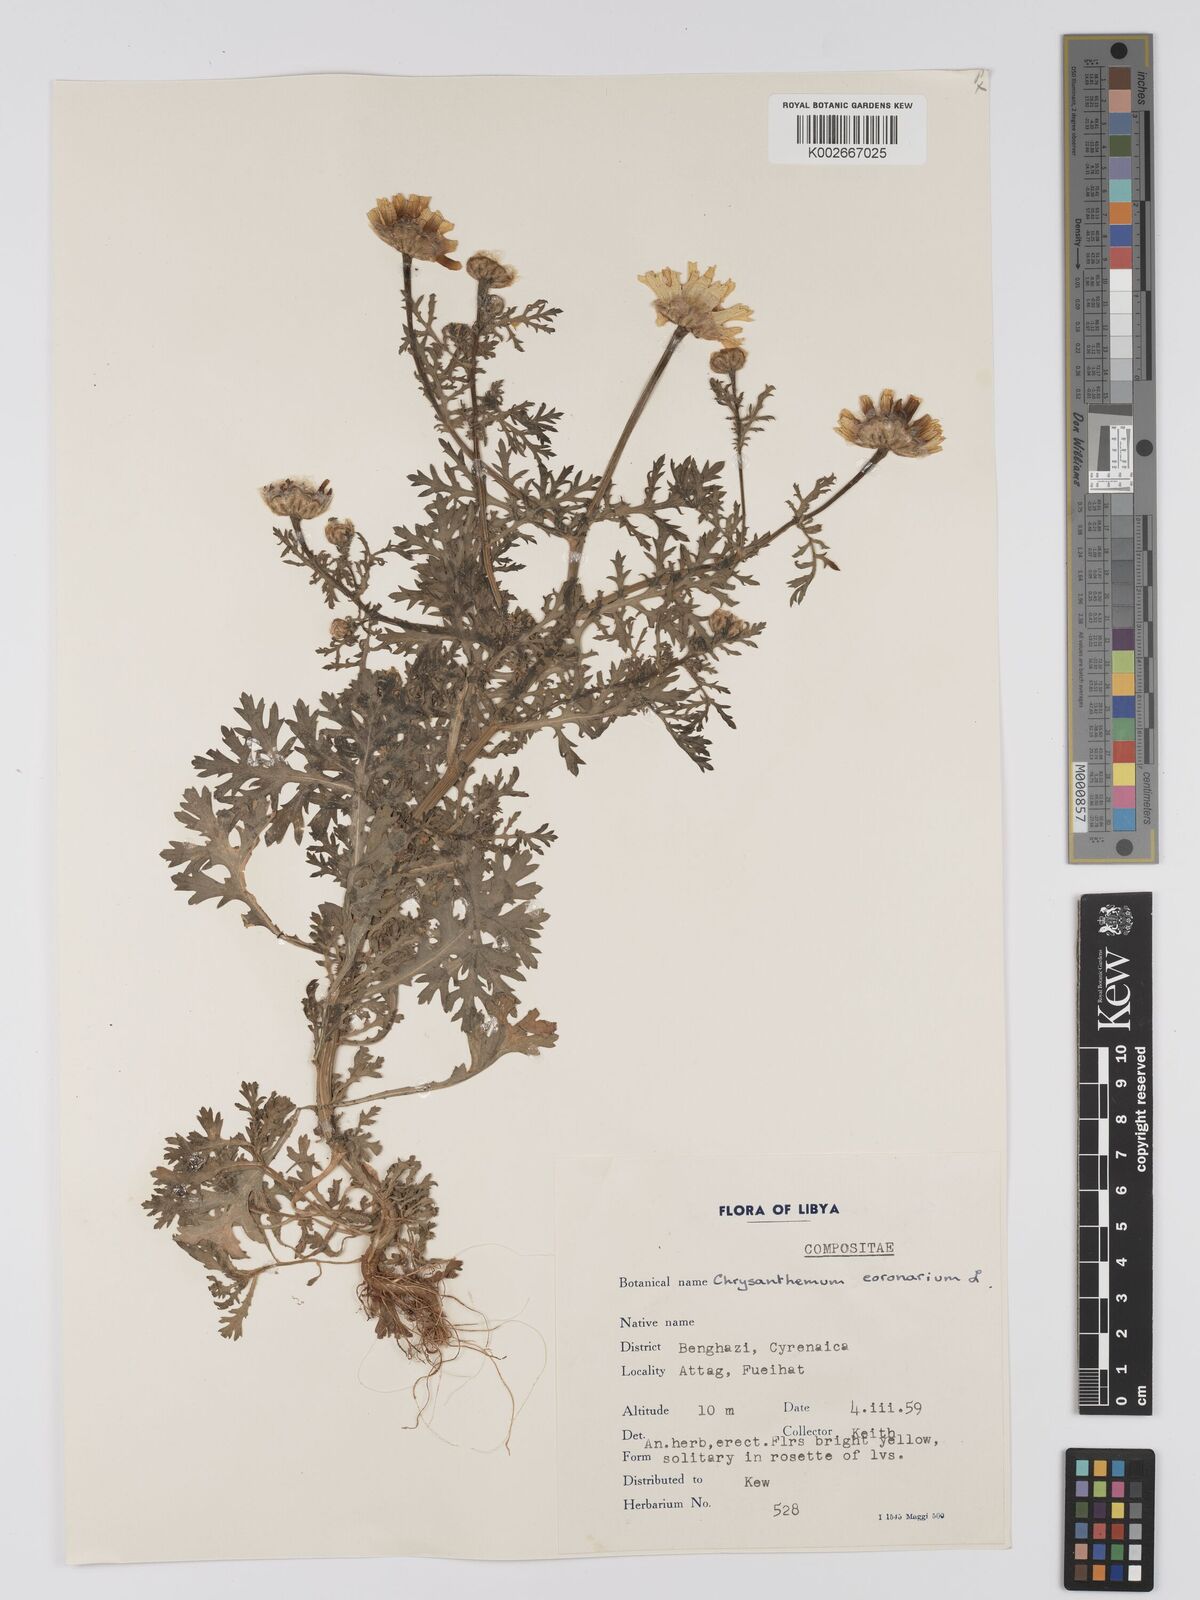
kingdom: Plantae
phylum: Tracheophyta
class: Magnoliopsida
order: Asterales
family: Asteraceae
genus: Glebionis
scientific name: Glebionis coronaria
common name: Crowndaisy
